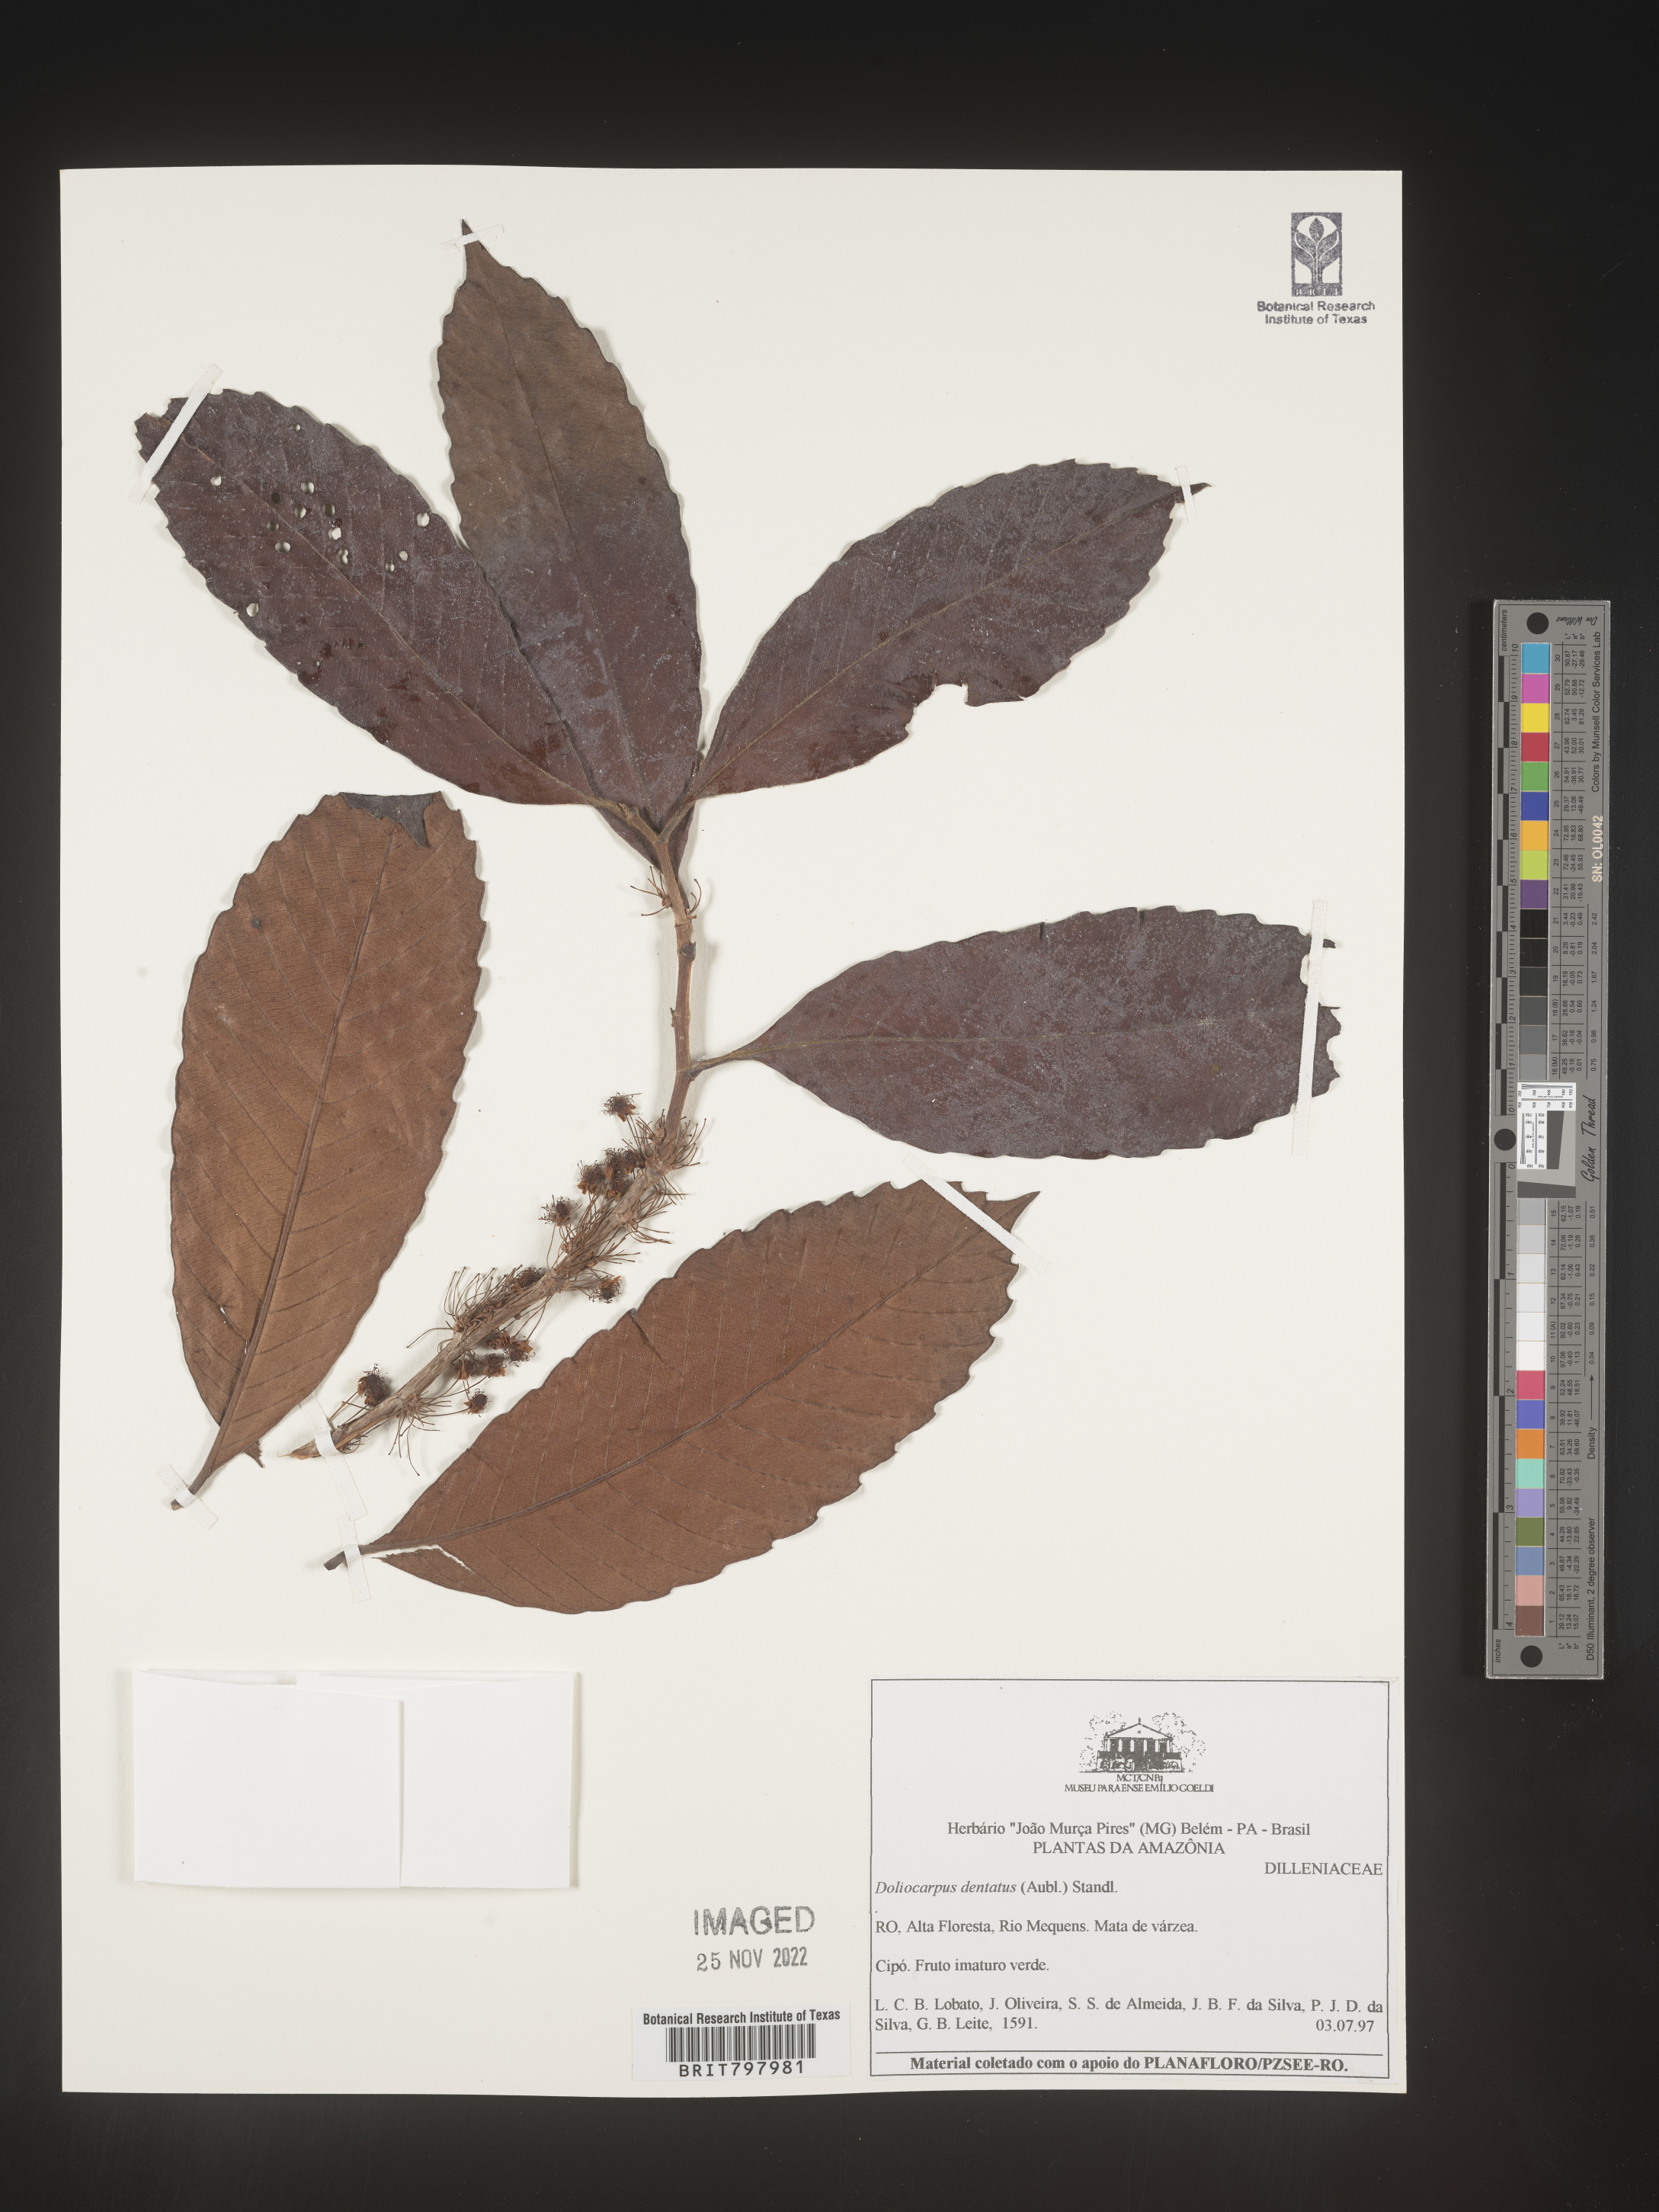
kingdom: Plantae
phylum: Tracheophyta
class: Magnoliopsida
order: Dilleniales
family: Dilleniaceae
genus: Doliocarpus
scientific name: Doliocarpus
